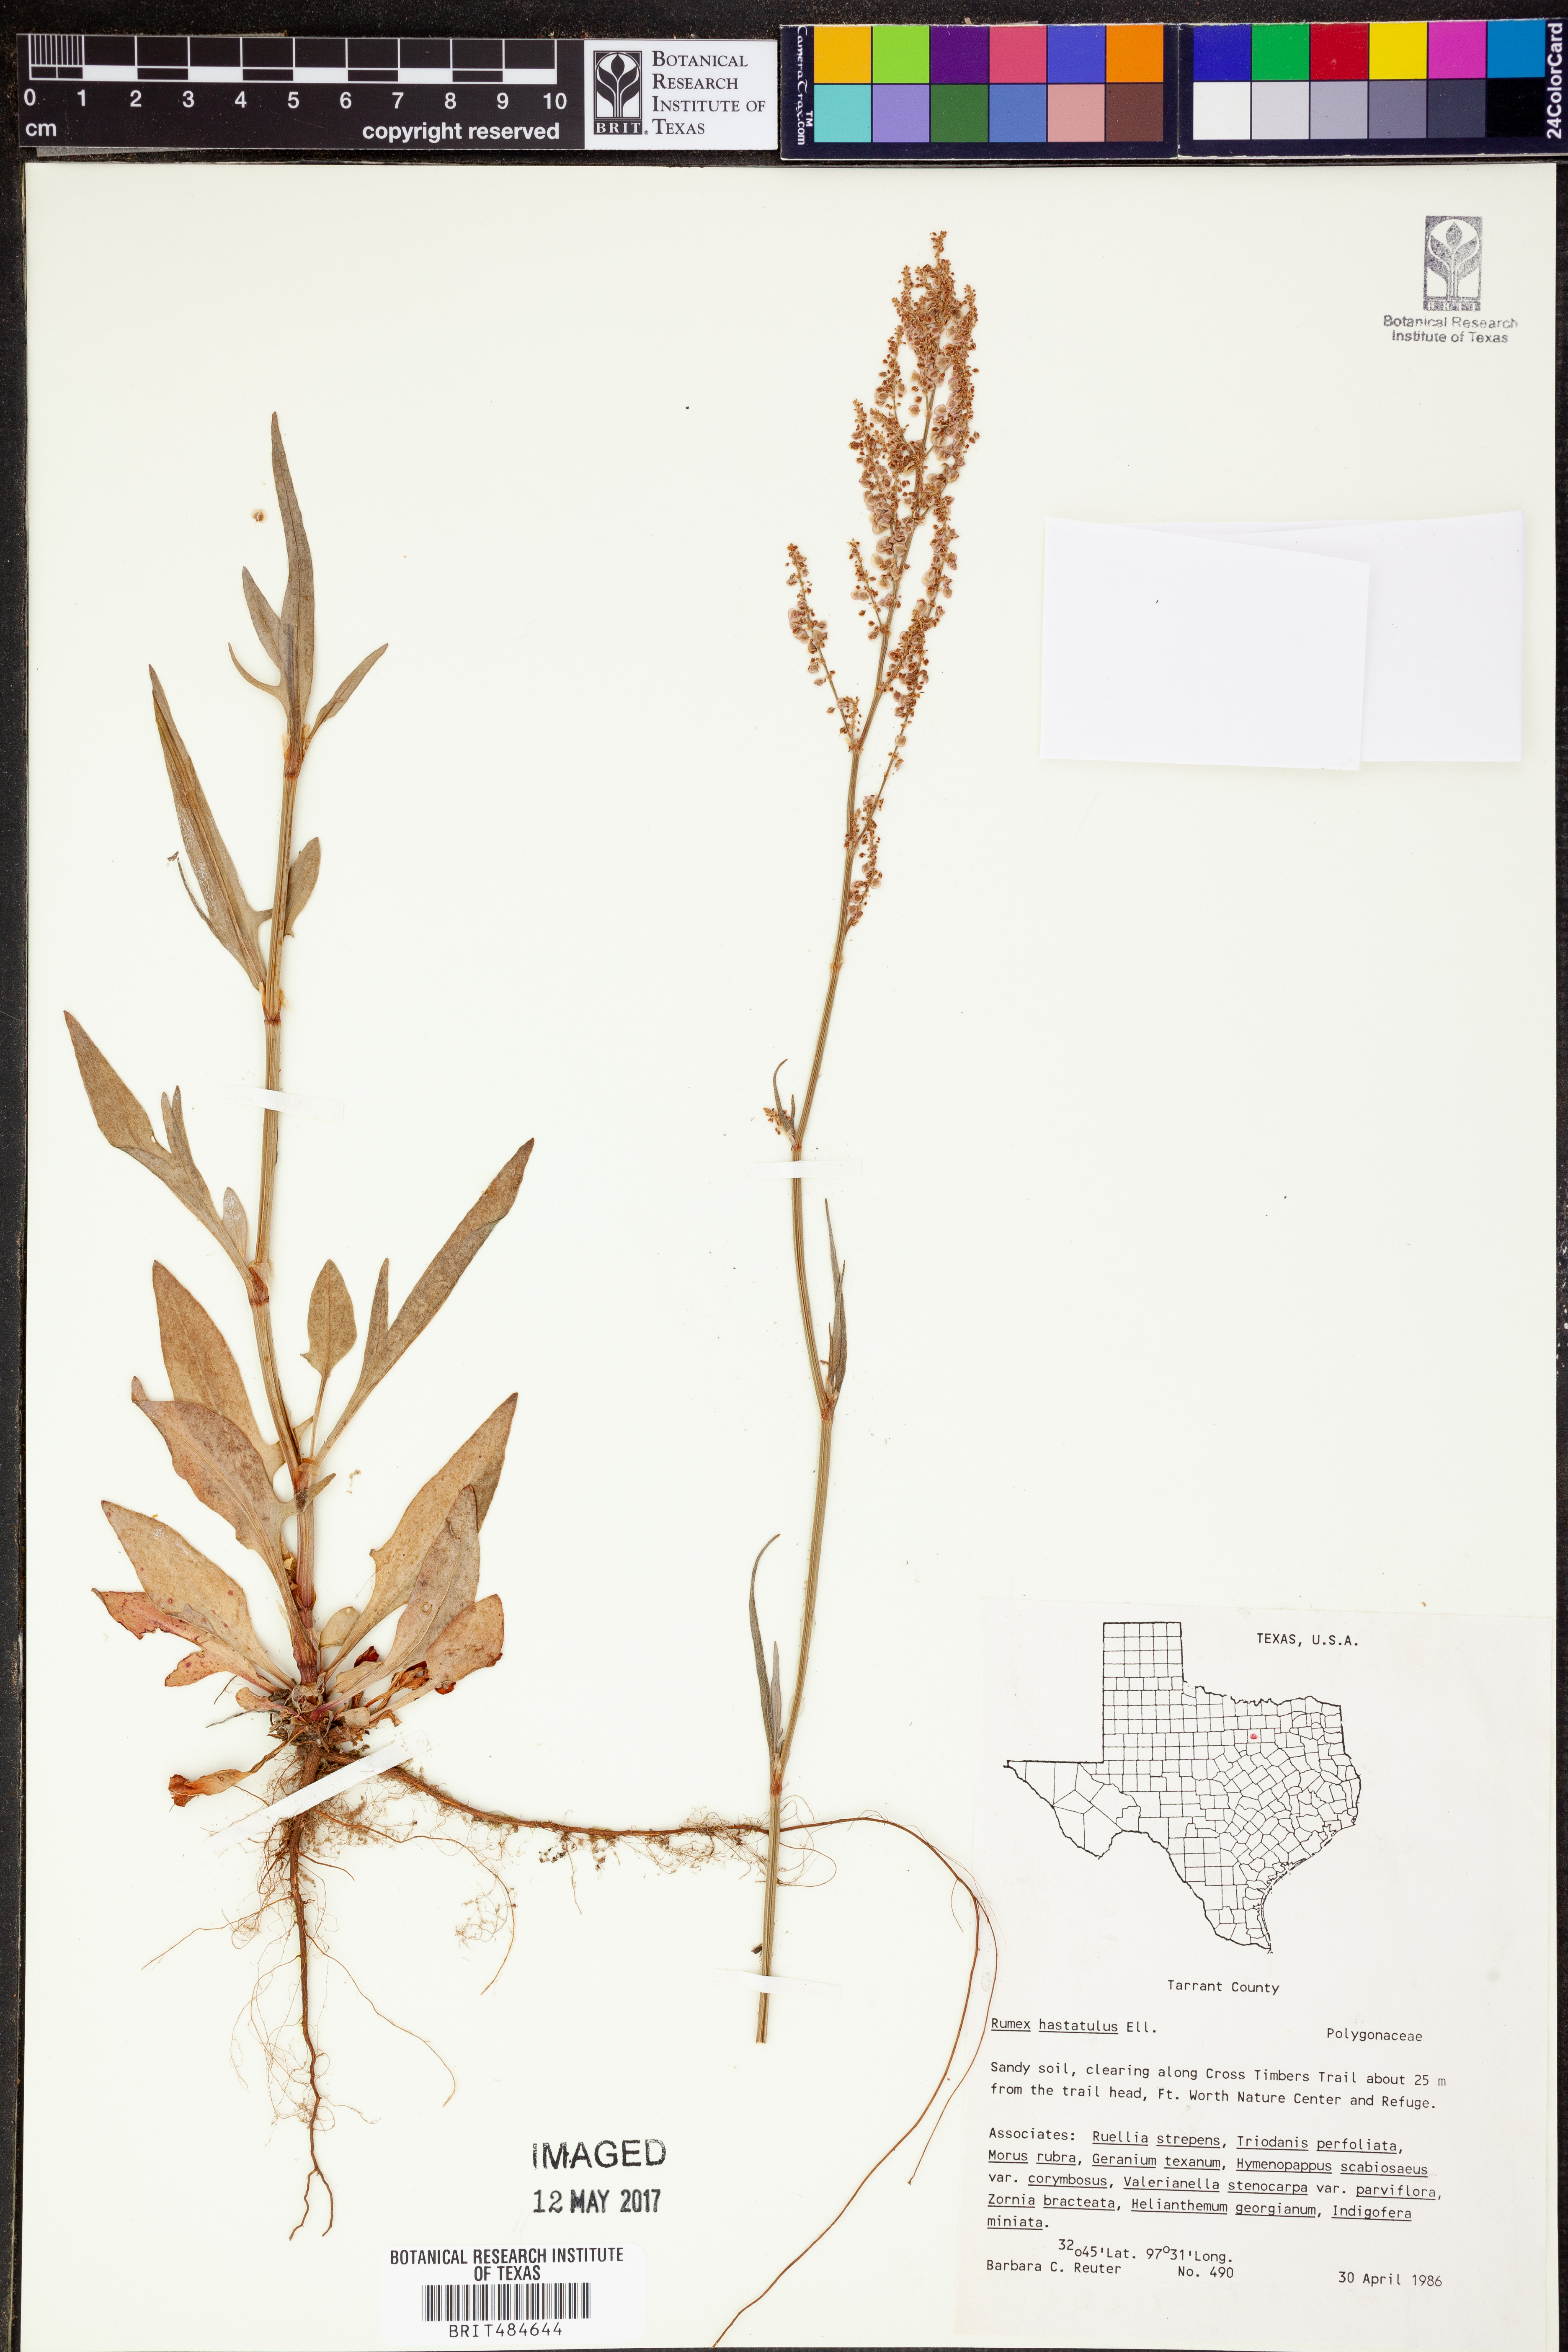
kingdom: Plantae
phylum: Tracheophyta
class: Magnoliopsida
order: Caryophyllales
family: Polygonaceae
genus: Rumex
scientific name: Rumex hastatulus
